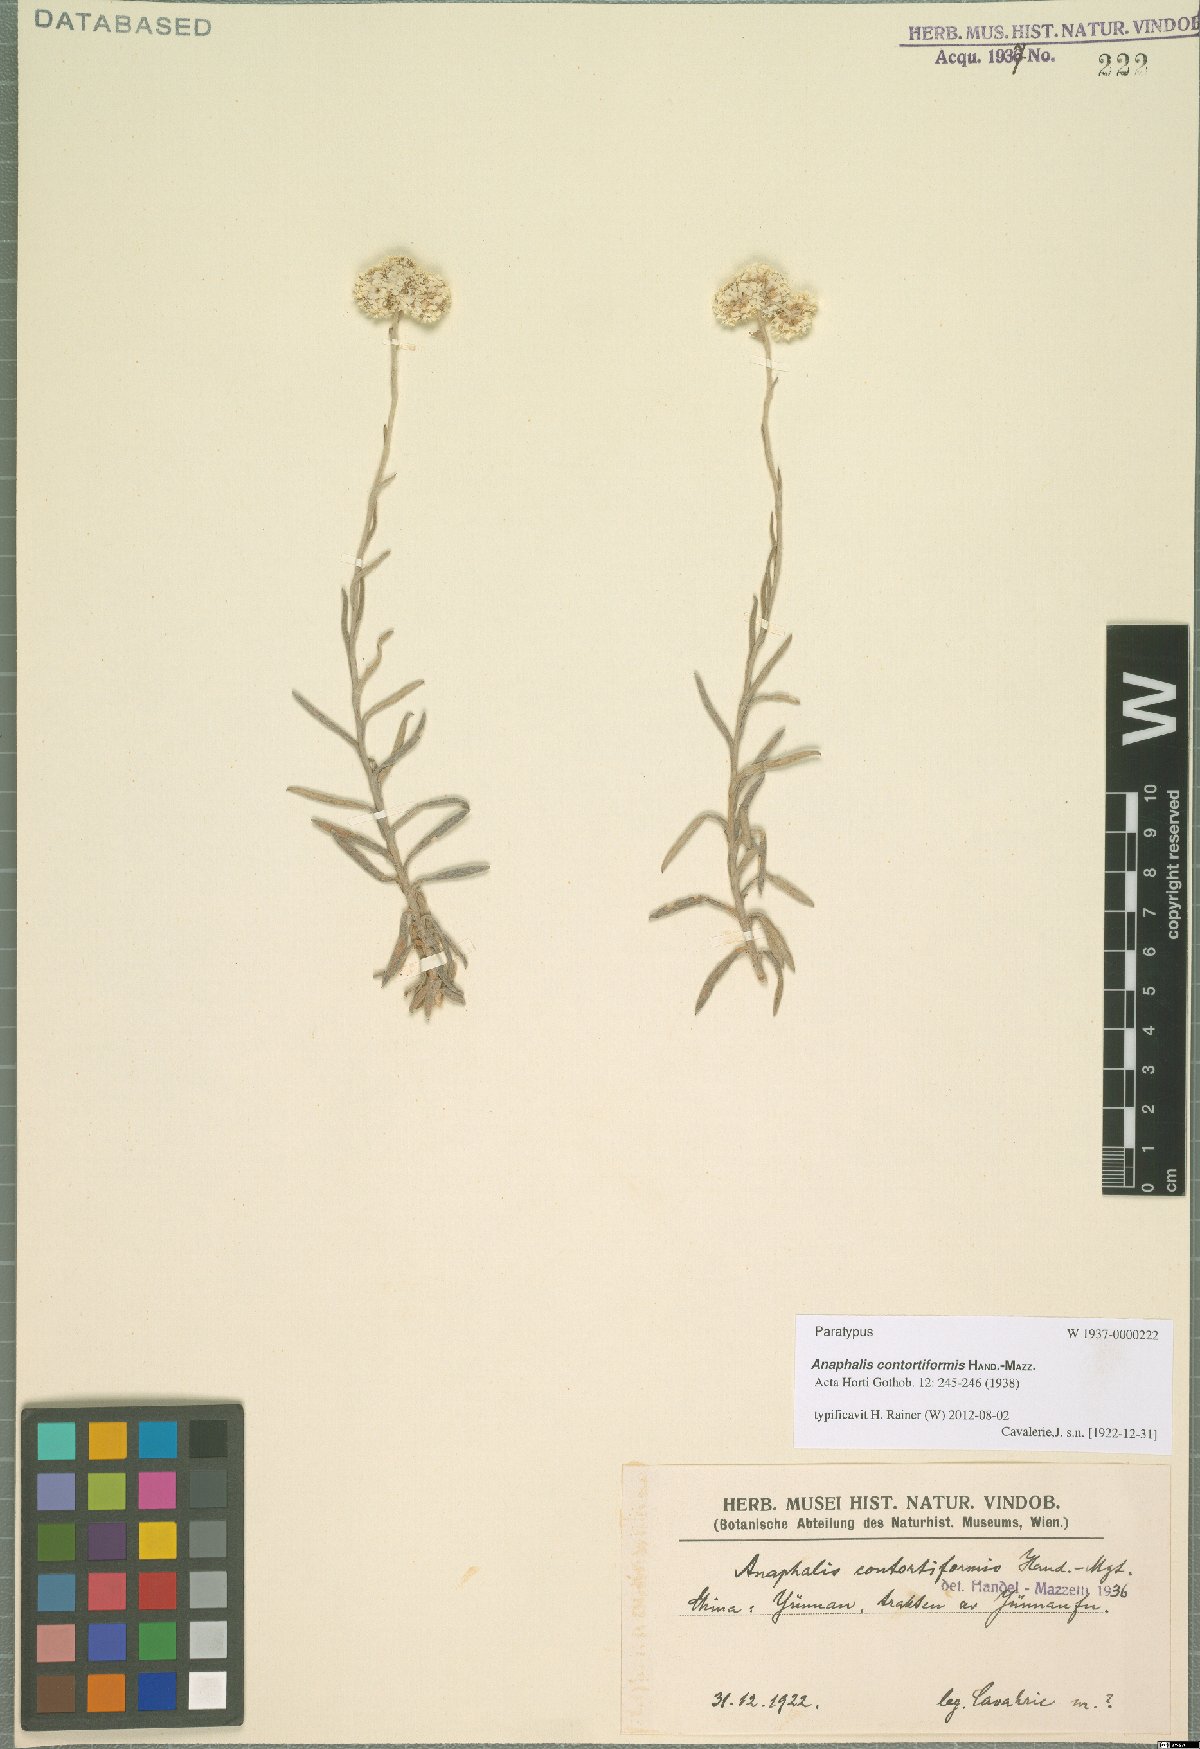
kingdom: Plantae
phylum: Tracheophyta
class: Magnoliopsida
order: Asterales
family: Asteraceae
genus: Anaphalis
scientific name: Anaphalis contortiformis
